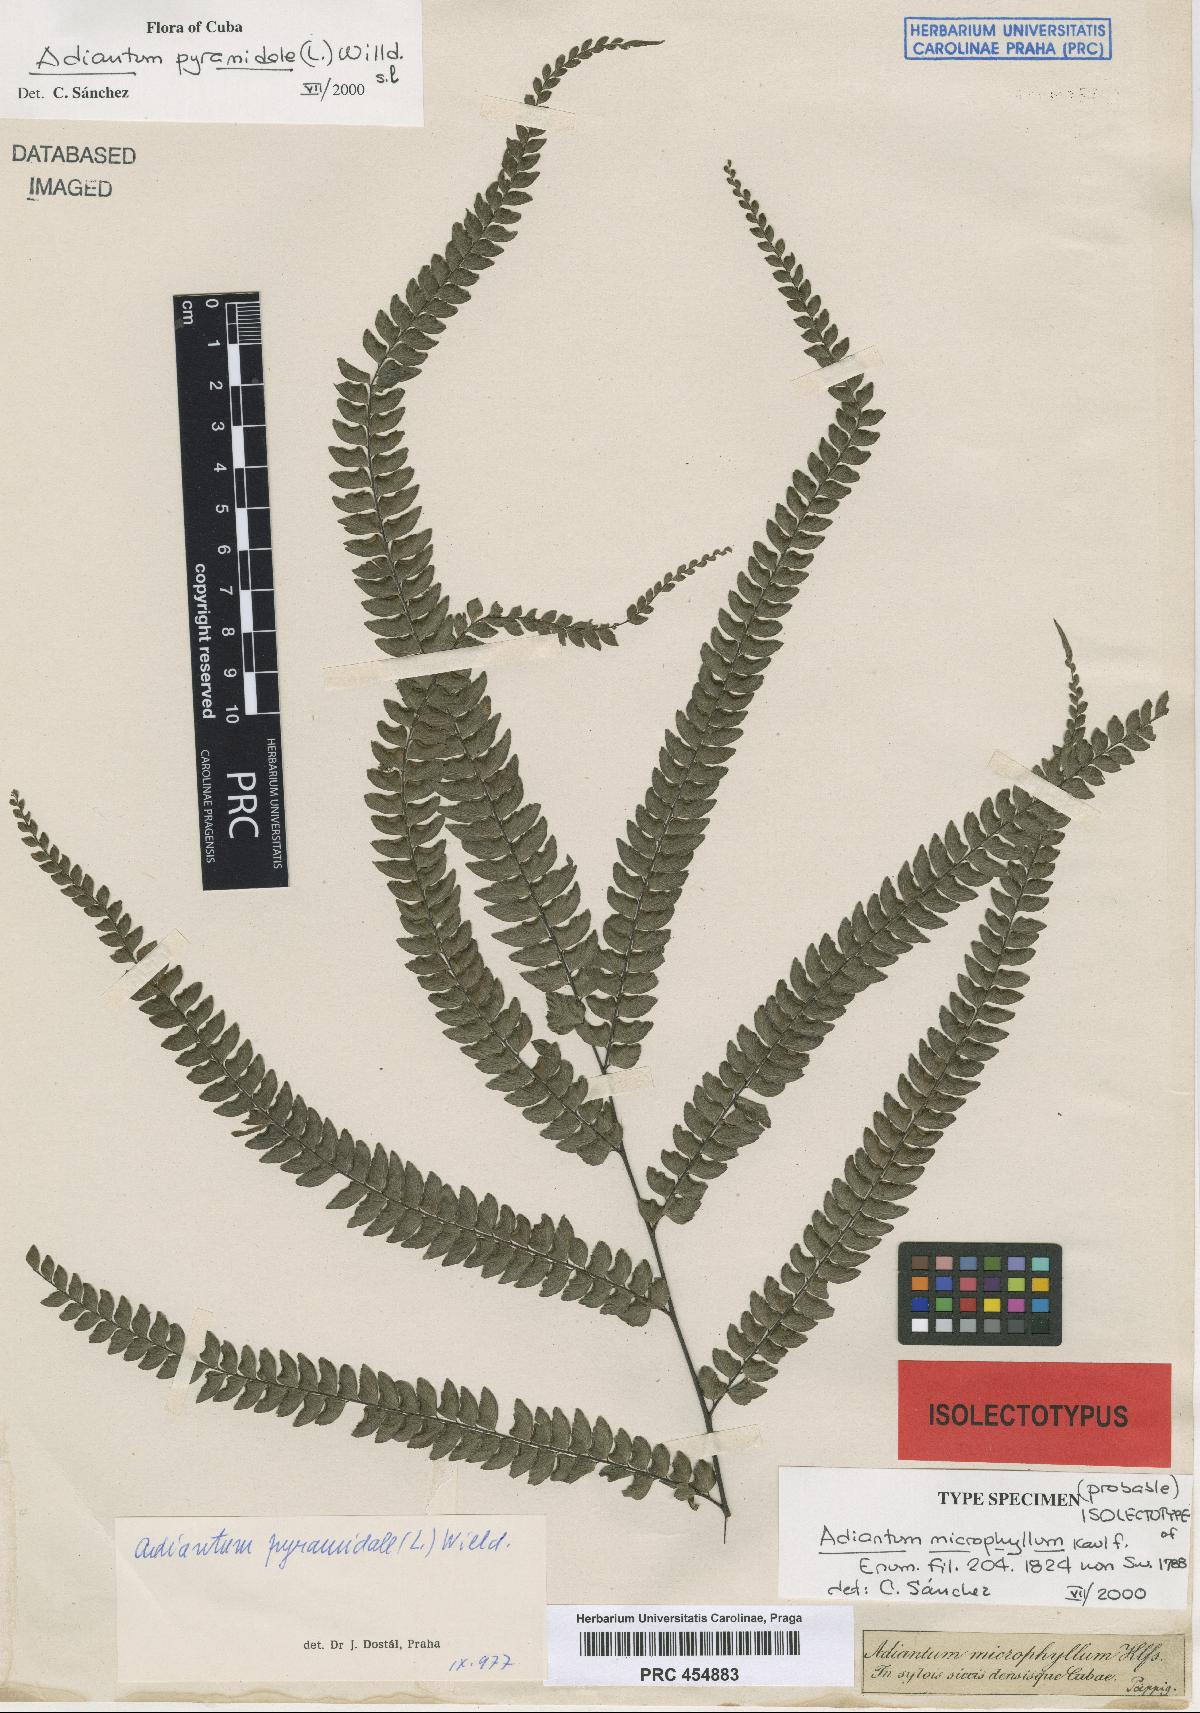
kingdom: Plantae
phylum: Tracheophyta
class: Polypodiopsida
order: Polypodiales
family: Pteridaceae
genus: Adiantum
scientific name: Adiantum pyramidale
